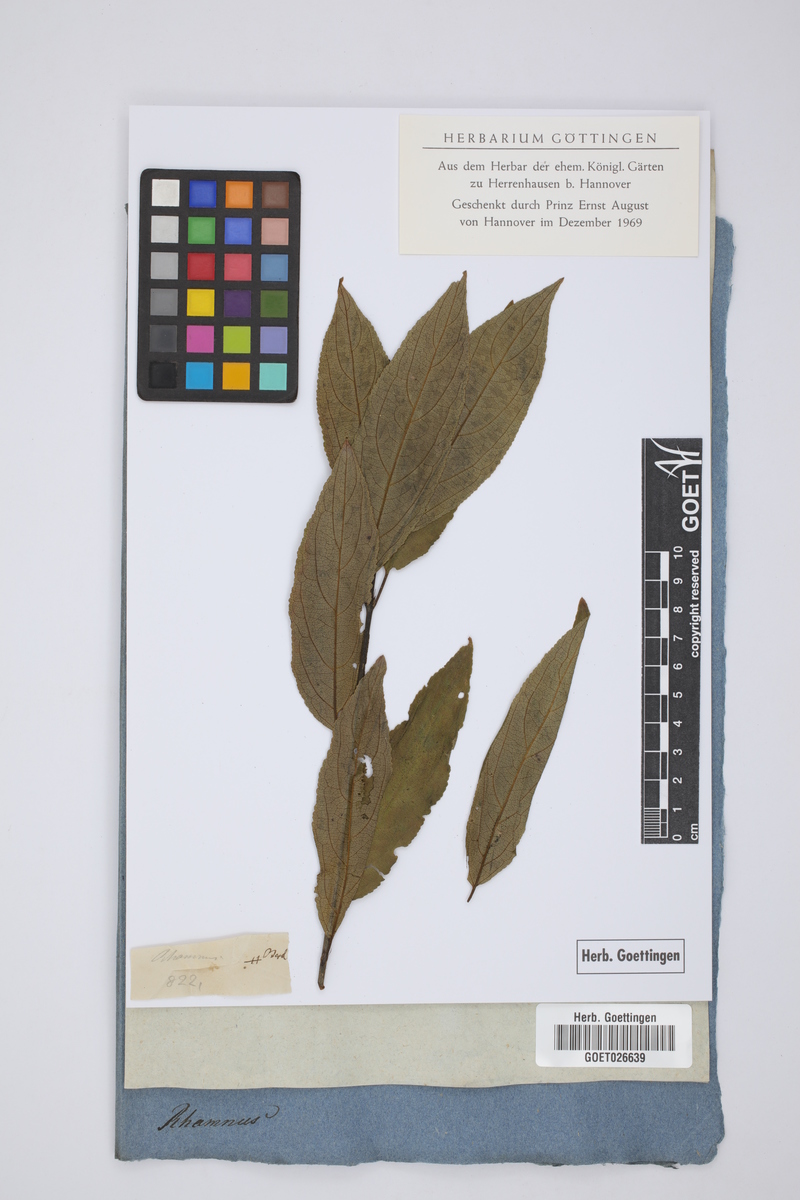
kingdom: Plantae
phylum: Tracheophyta
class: Magnoliopsida
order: Rosales
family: Rhamnaceae
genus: Rhamnus
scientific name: Rhamnus
